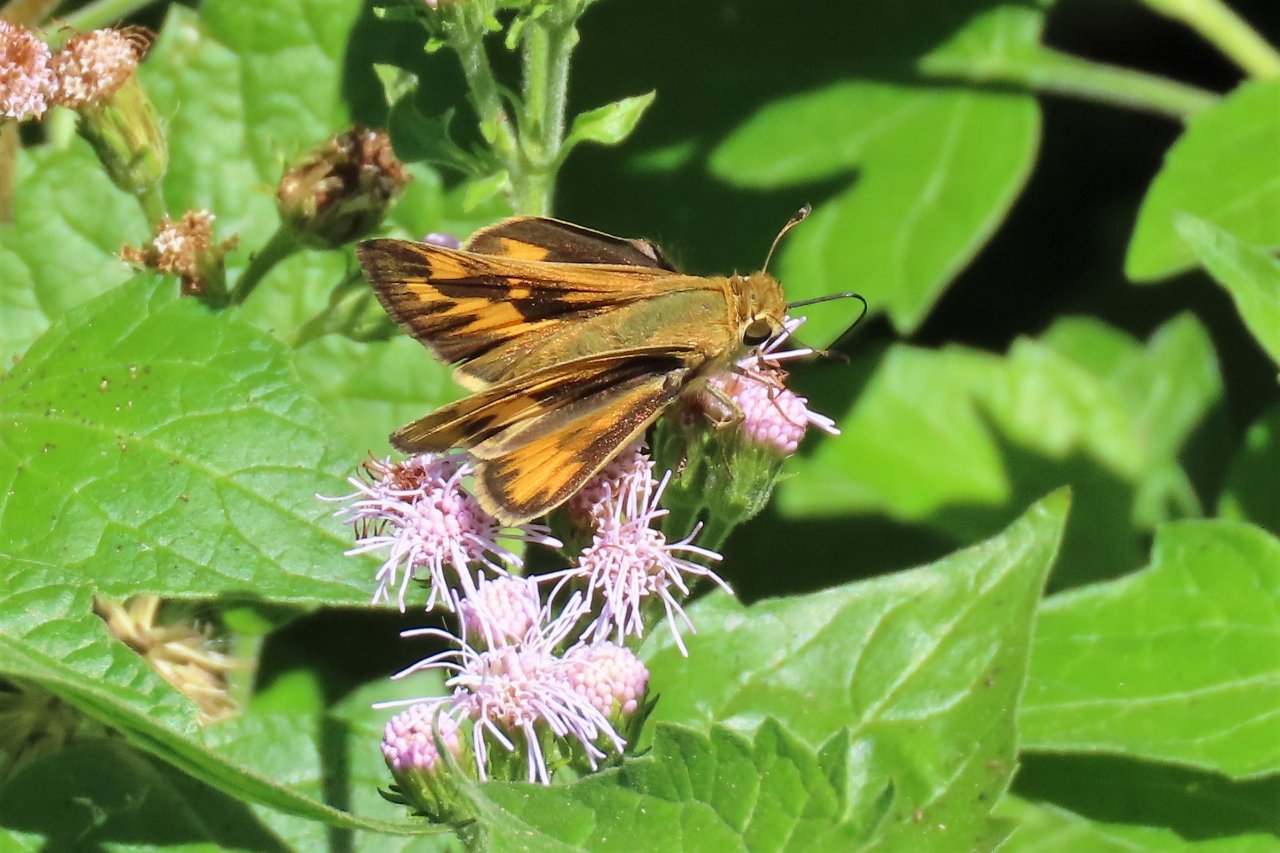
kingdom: Animalia
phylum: Arthropoda
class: Insecta
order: Lepidoptera
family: Hesperiidae
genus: Hylephila
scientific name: Hylephila phyleus
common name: Fiery Skipper
